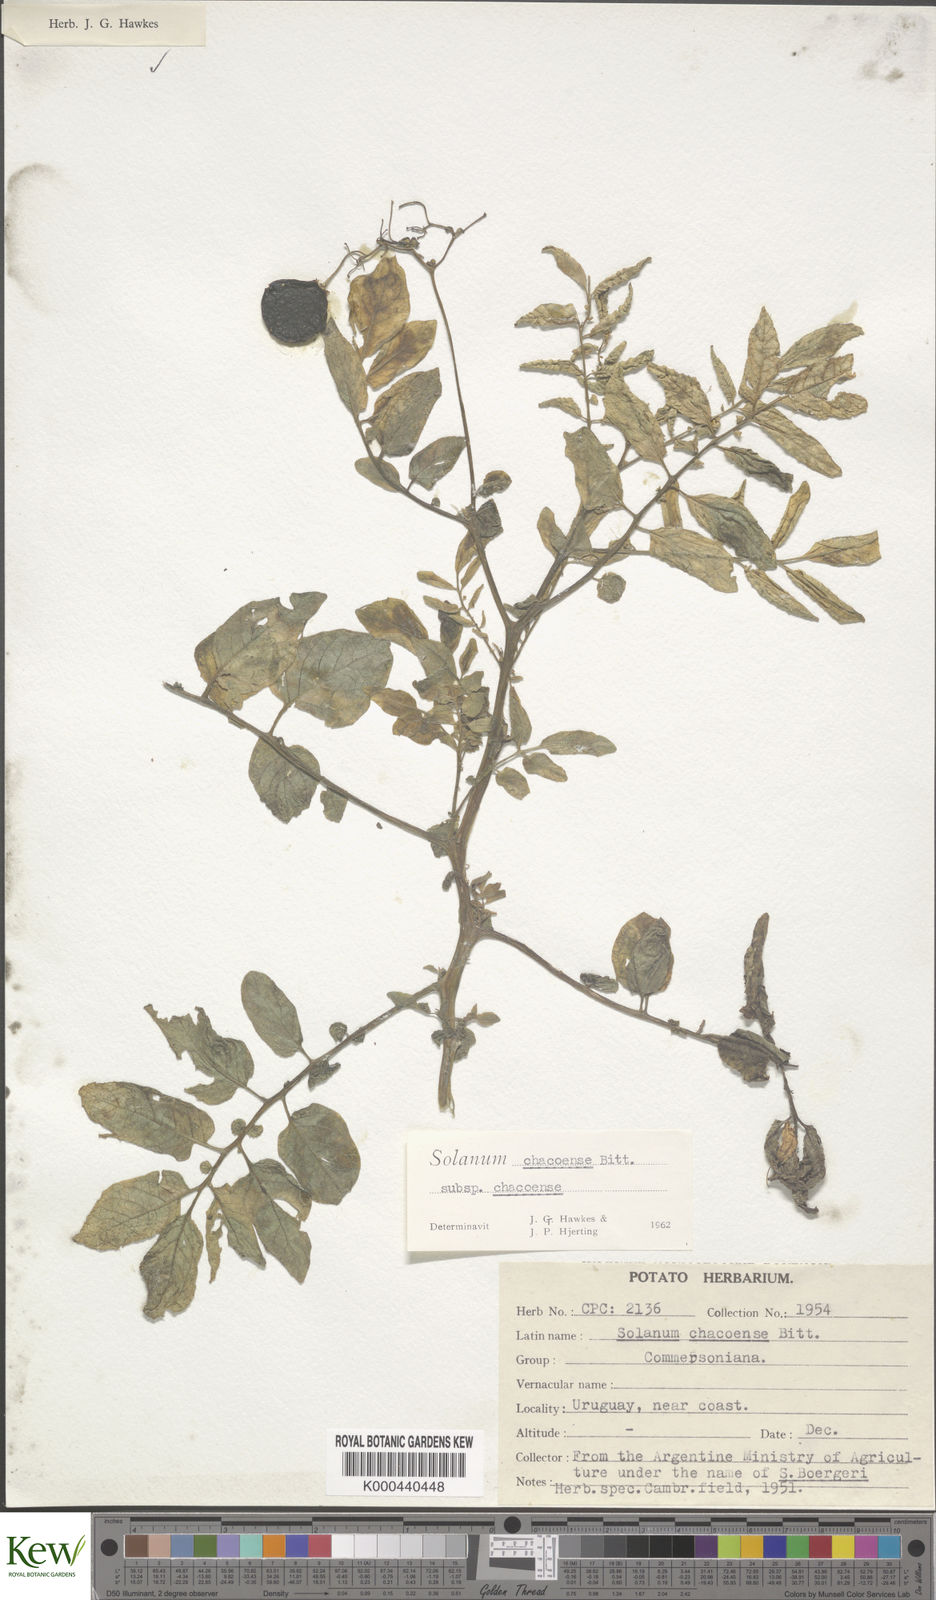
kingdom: Plantae
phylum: Tracheophyta
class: Magnoliopsida
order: Solanales
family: Solanaceae
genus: Solanum
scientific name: Solanum chacoense
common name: Chaco potato
